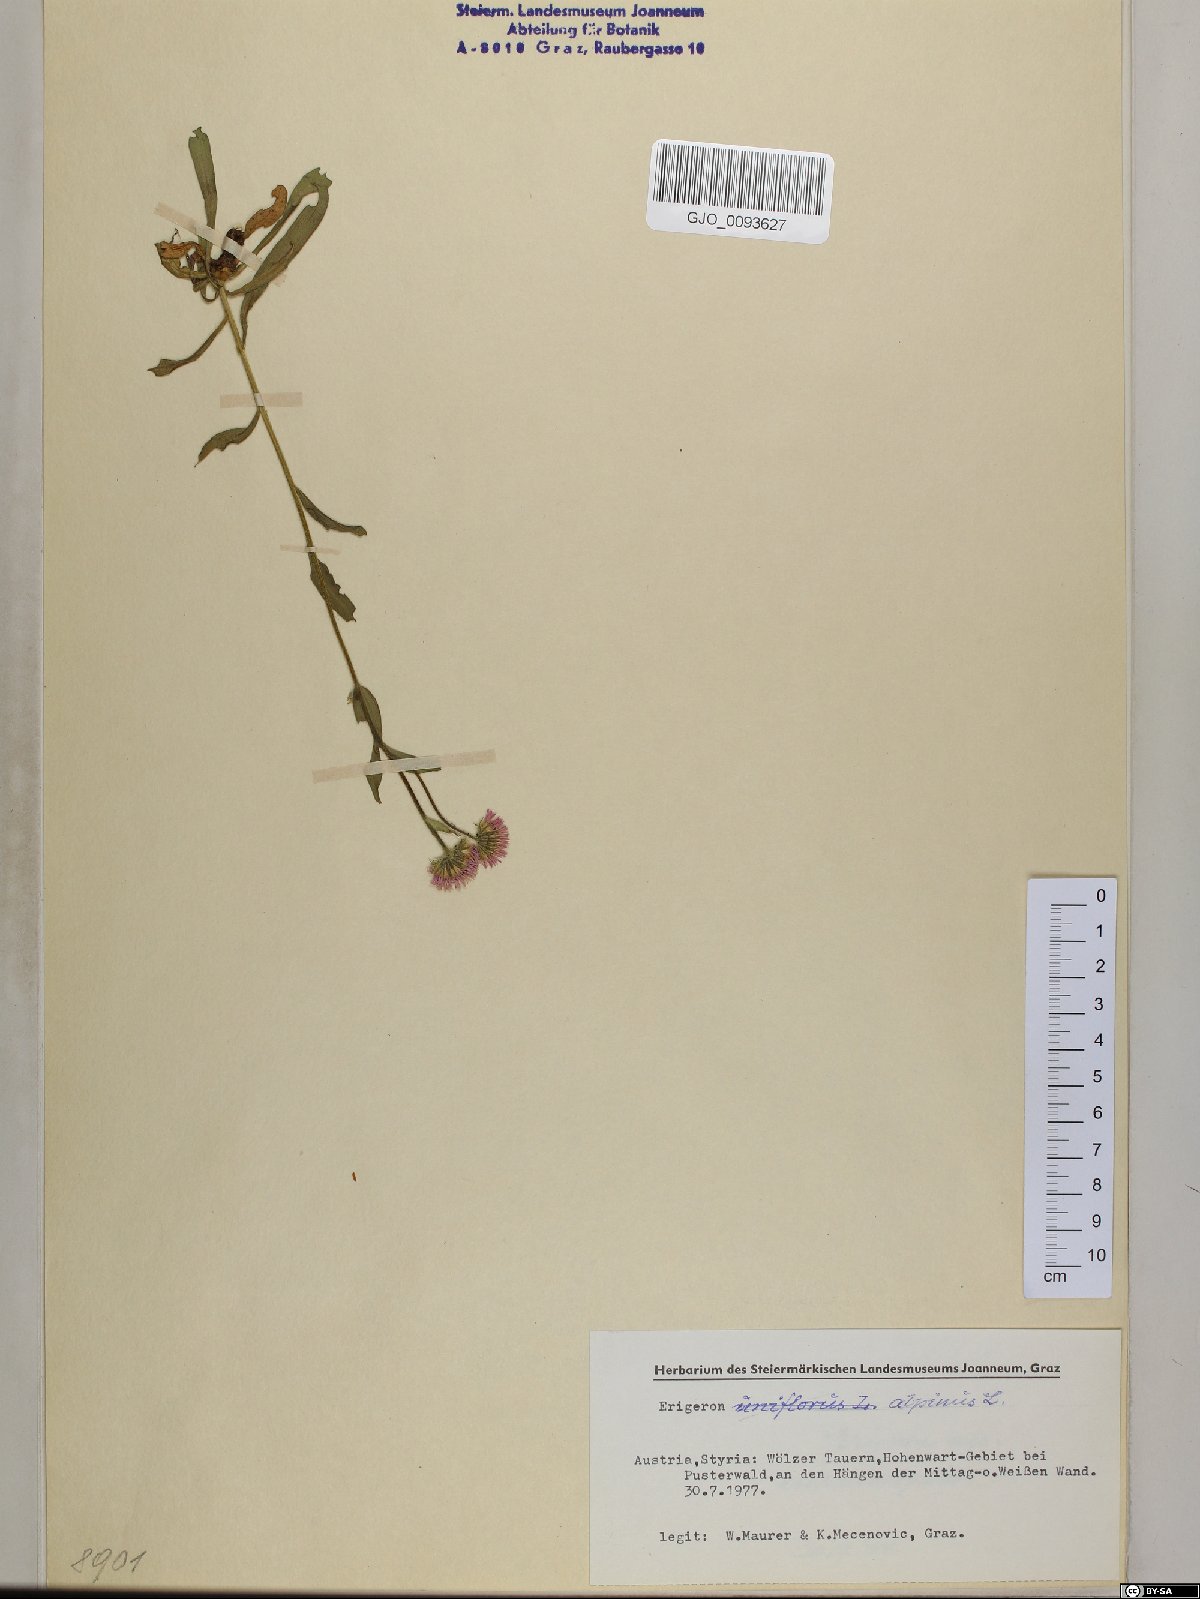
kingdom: Plantae
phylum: Tracheophyta
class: Magnoliopsida
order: Asterales
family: Asteraceae
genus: Erigeron
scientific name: Erigeron alpinus
